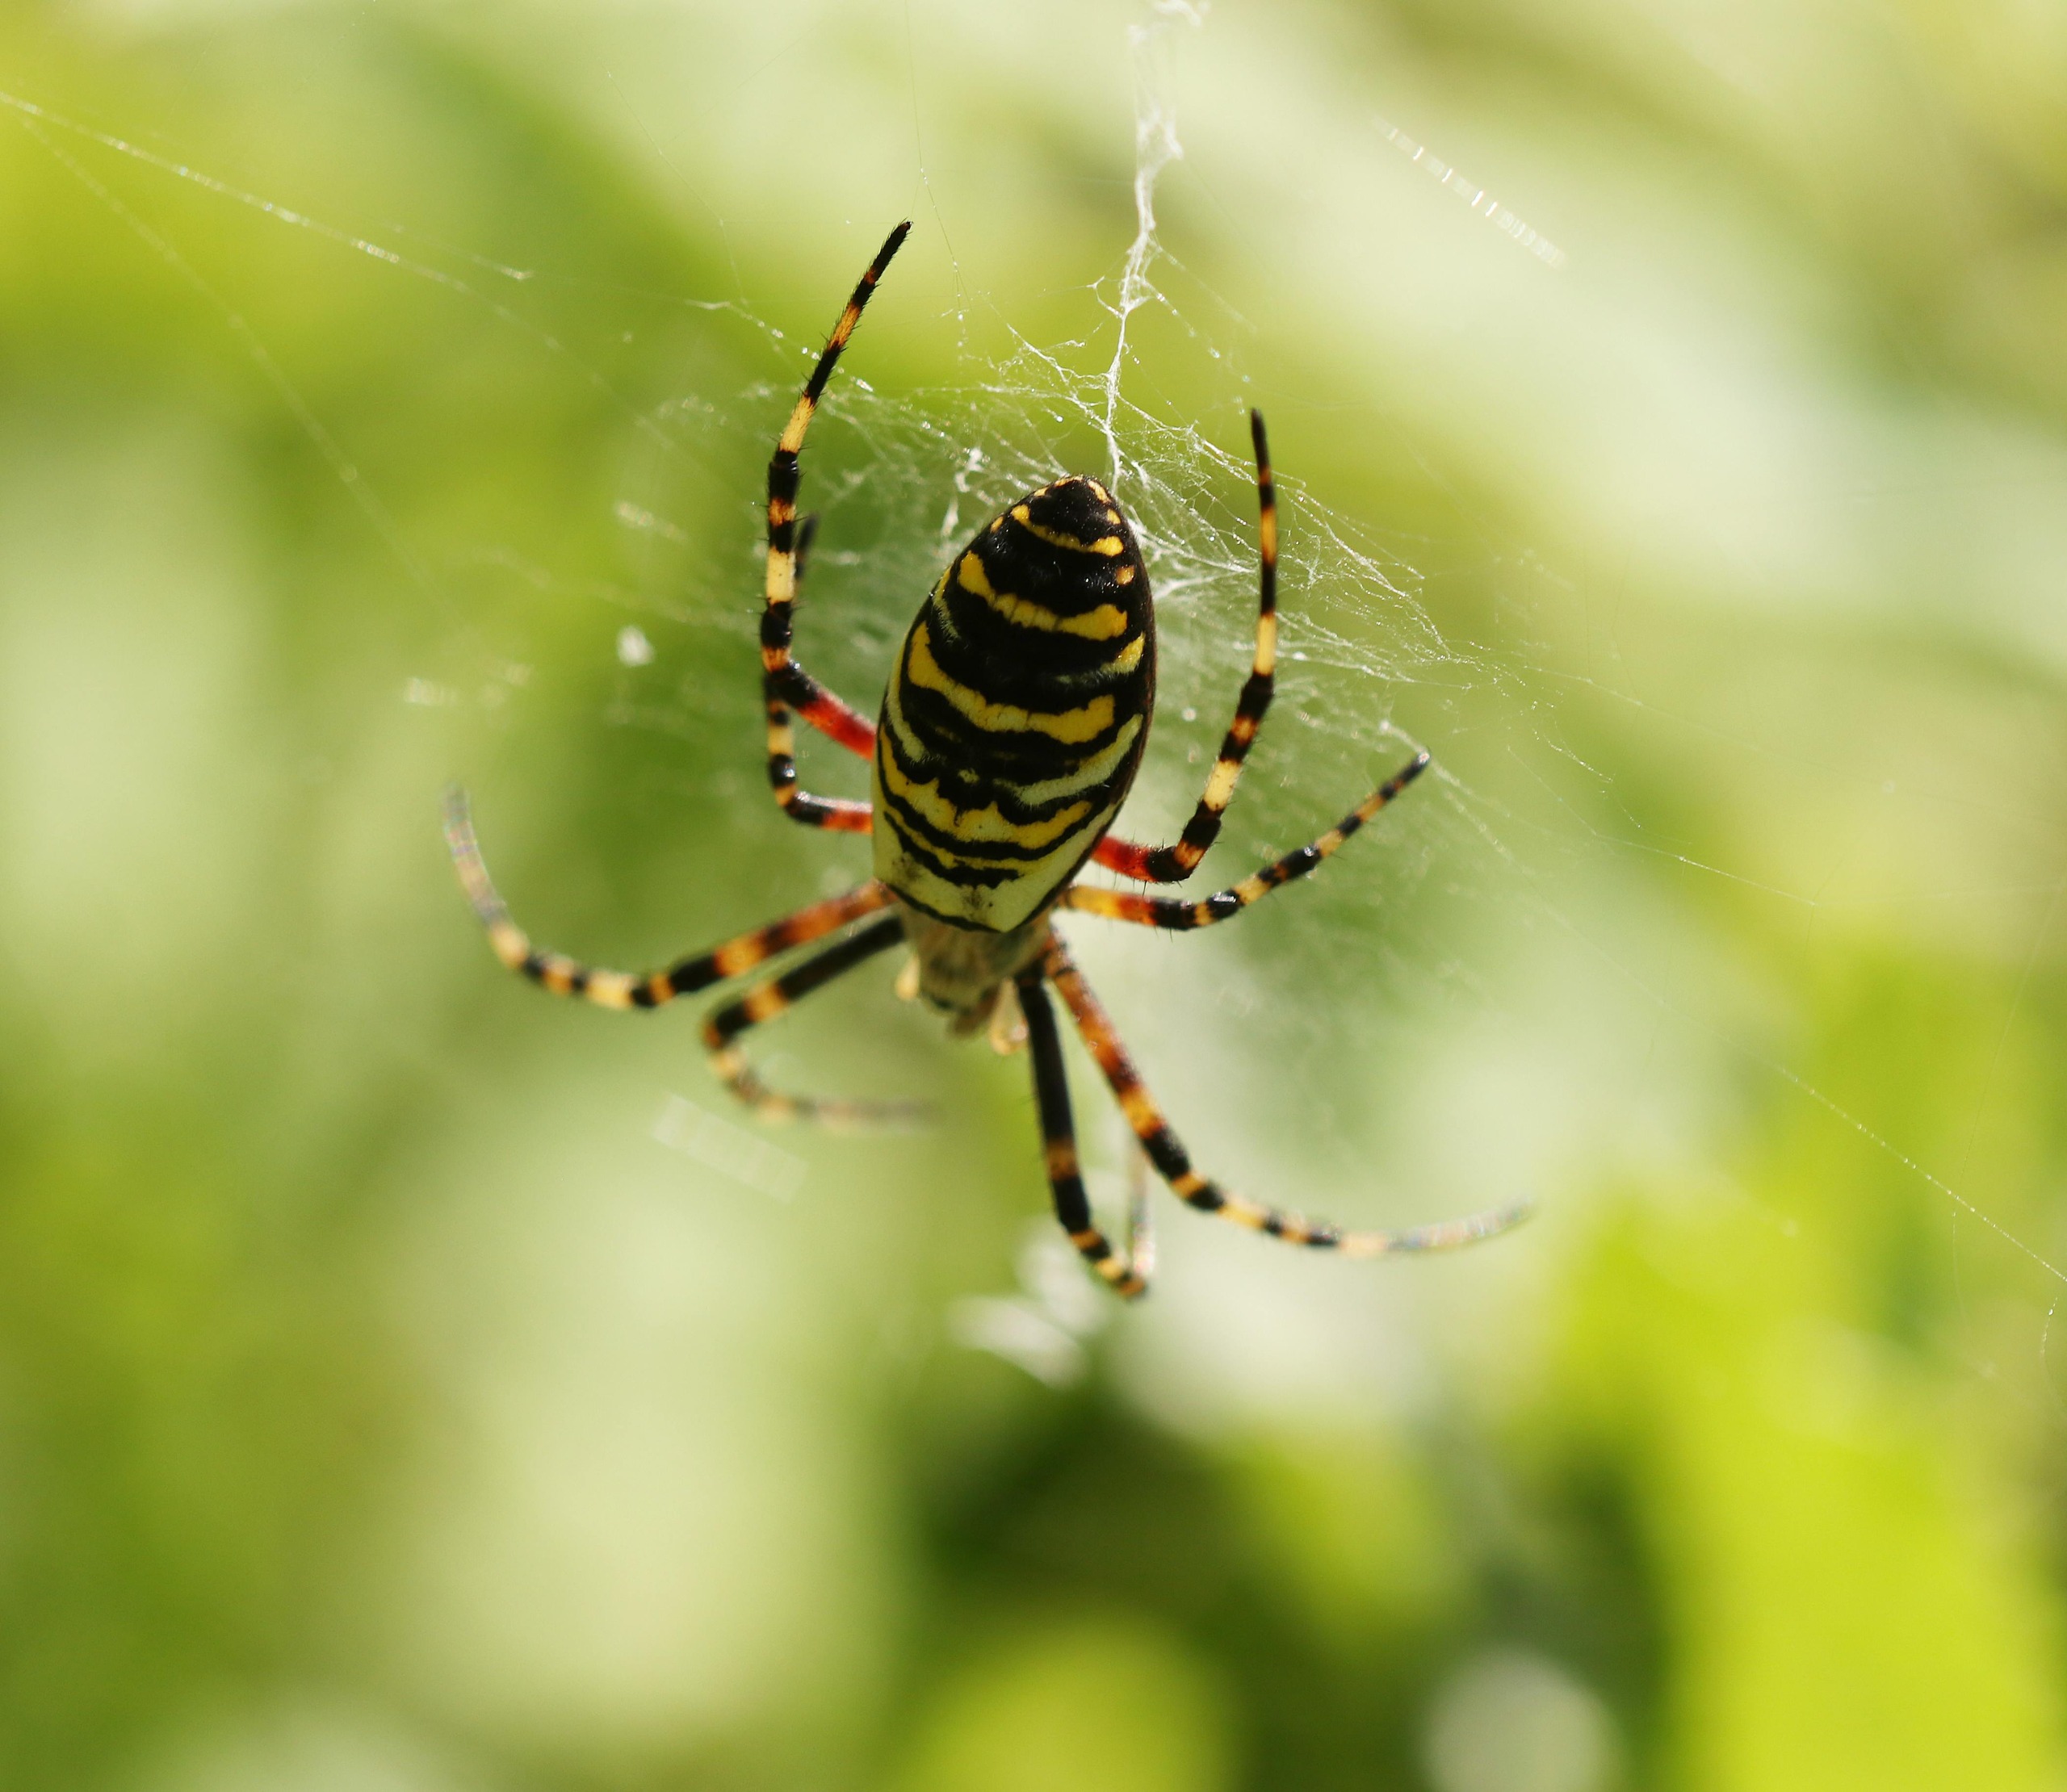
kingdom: Animalia
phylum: Arthropoda
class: Arachnida
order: Araneae
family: Araneidae
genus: Argiope
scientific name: Argiope bruennichi
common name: Hvepseedderkop
